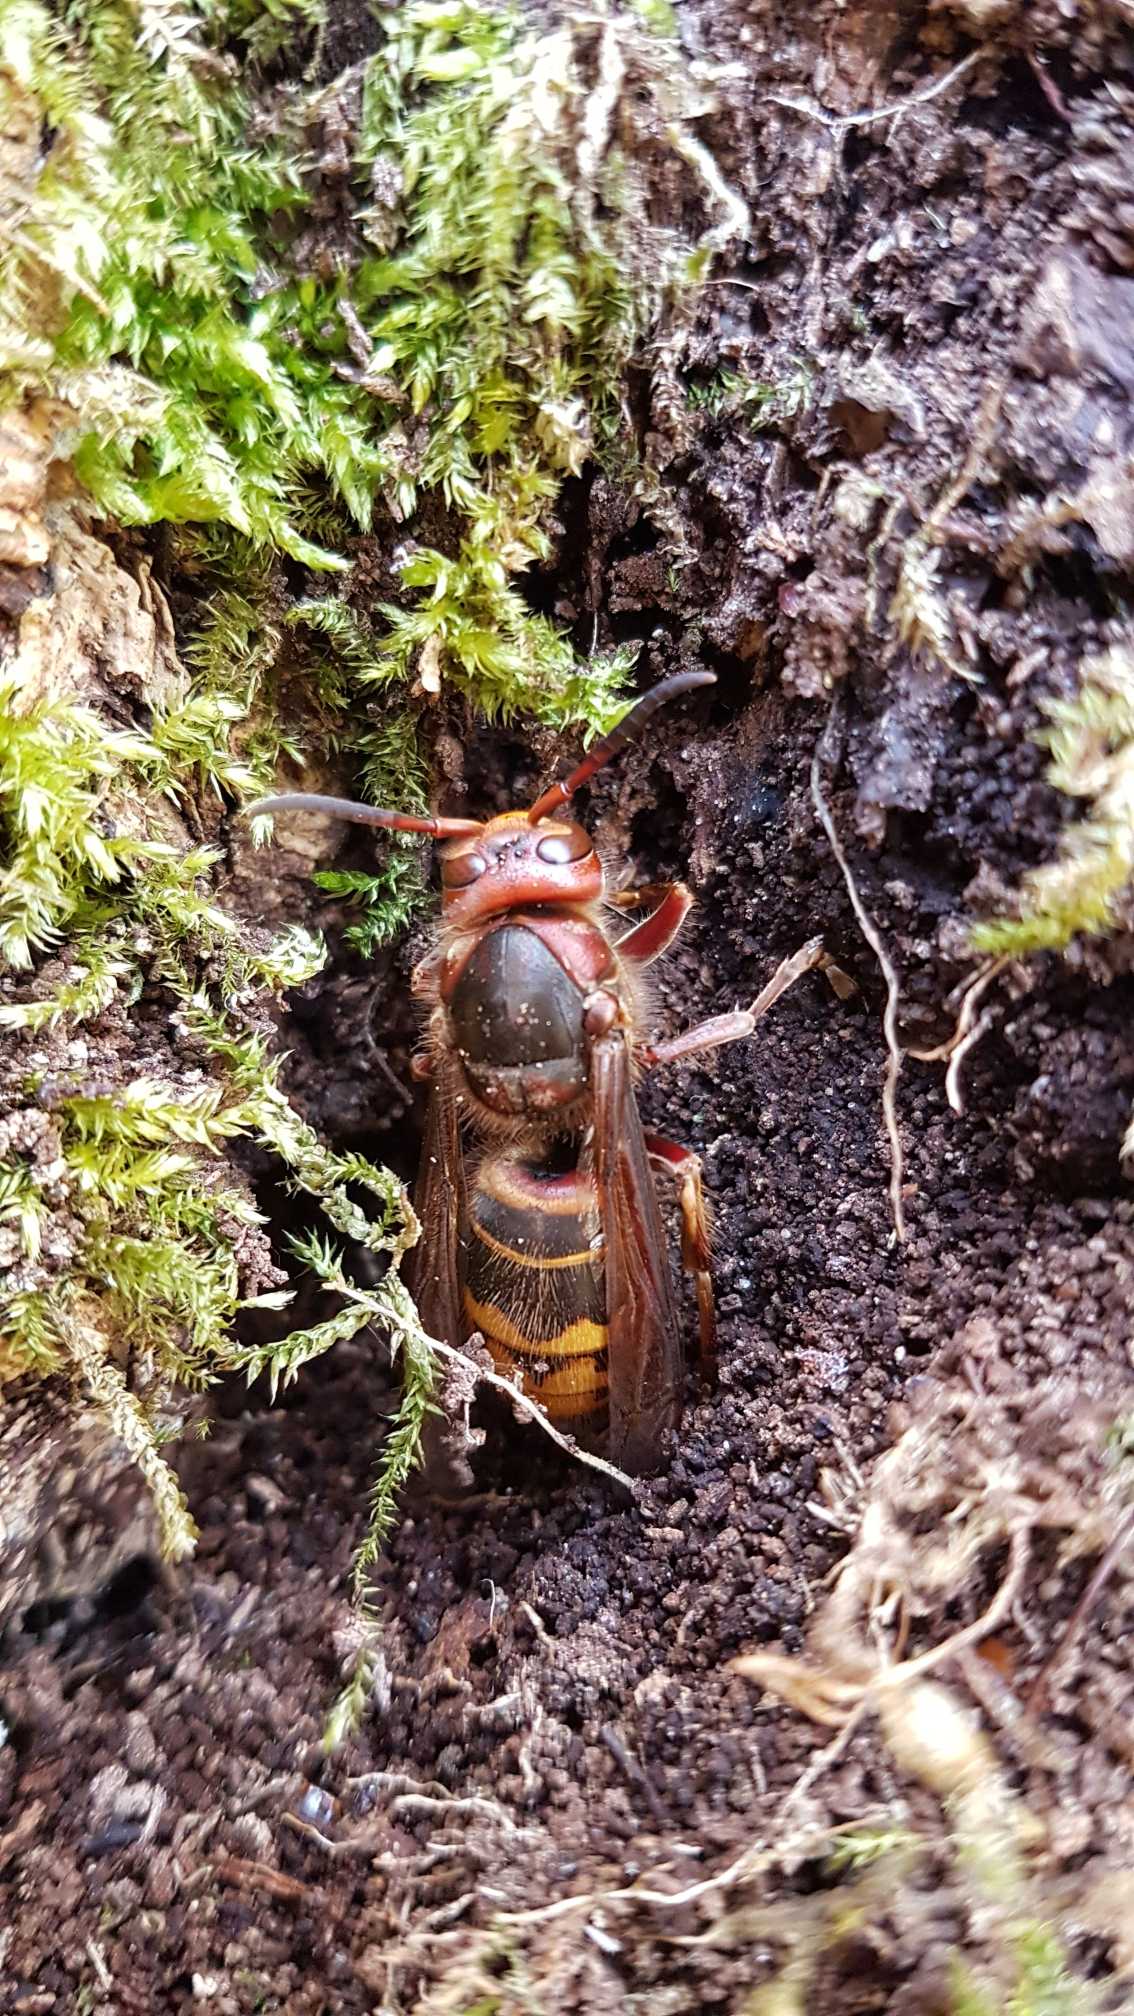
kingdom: Animalia
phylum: Arthropoda
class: Insecta
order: Hymenoptera
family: Vespidae
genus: Vespa
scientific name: Vespa crabro
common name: Stor gedehams
